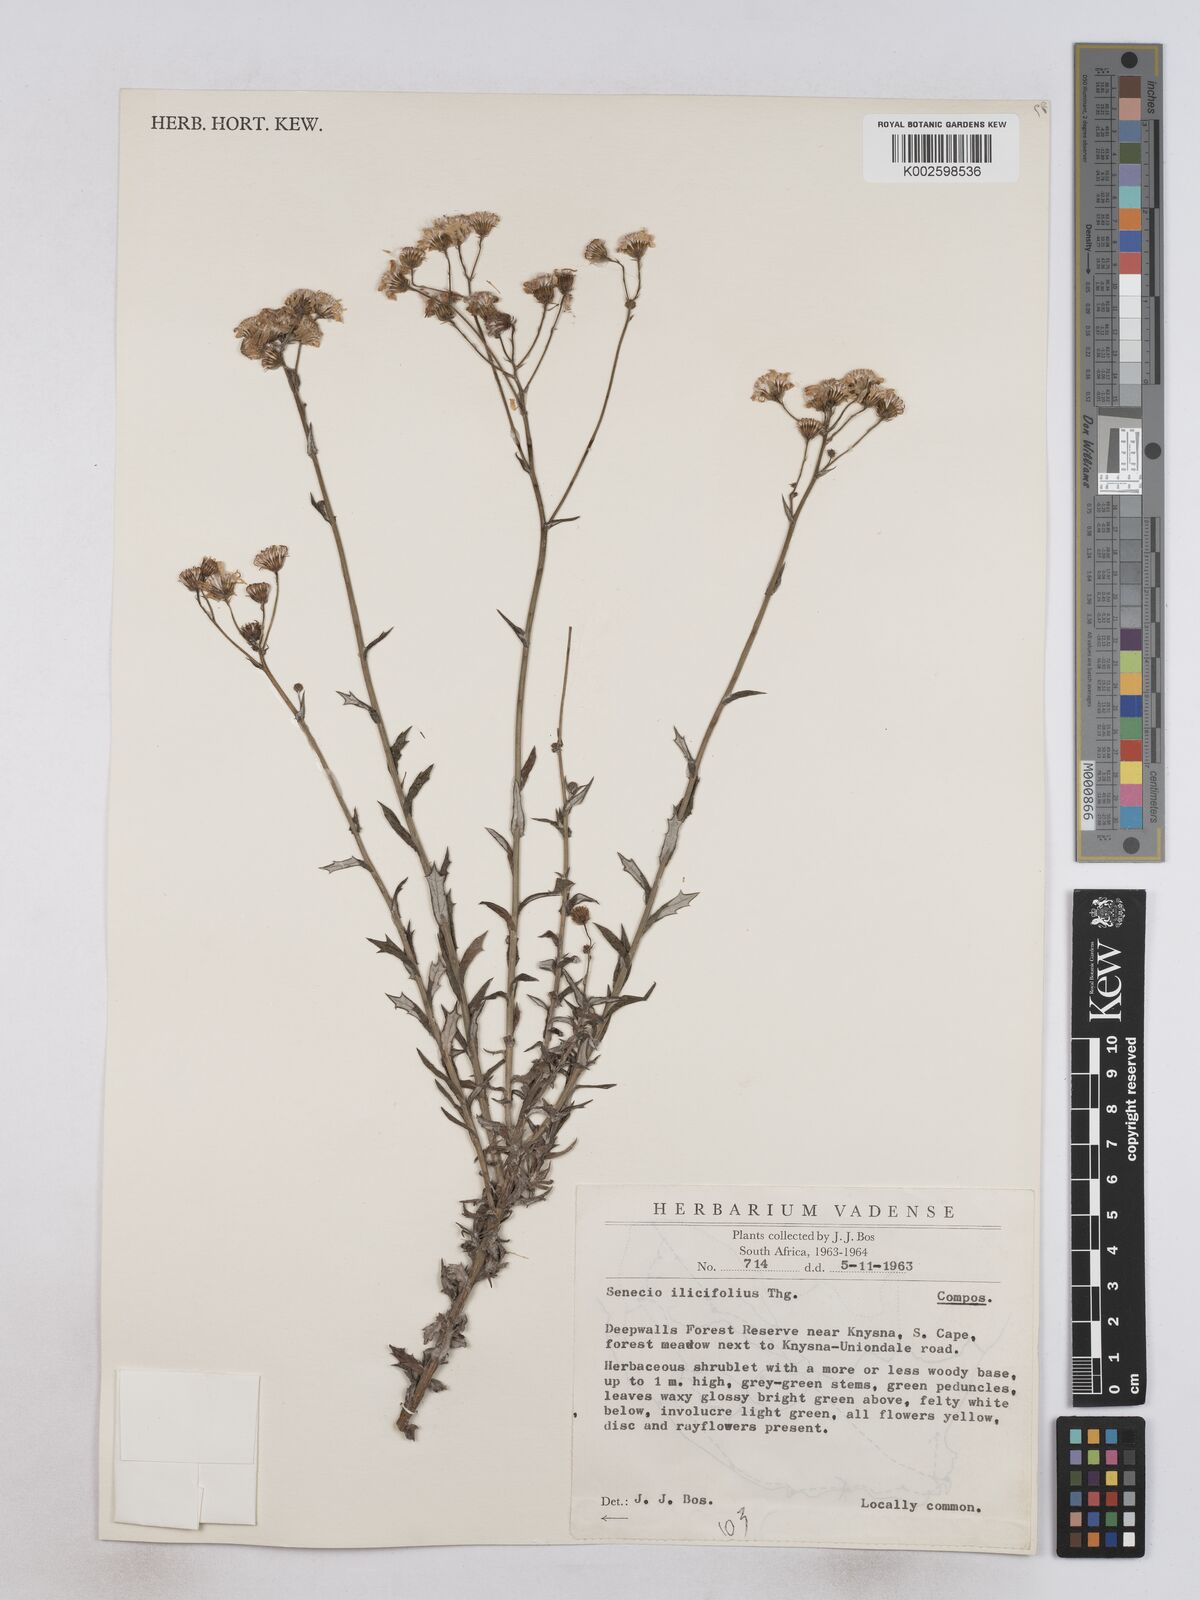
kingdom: Plantae
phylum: Tracheophyta
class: Magnoliopsida
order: Asterales
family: Asteraceae
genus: Senecio
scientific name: Senecio ilicifolius
